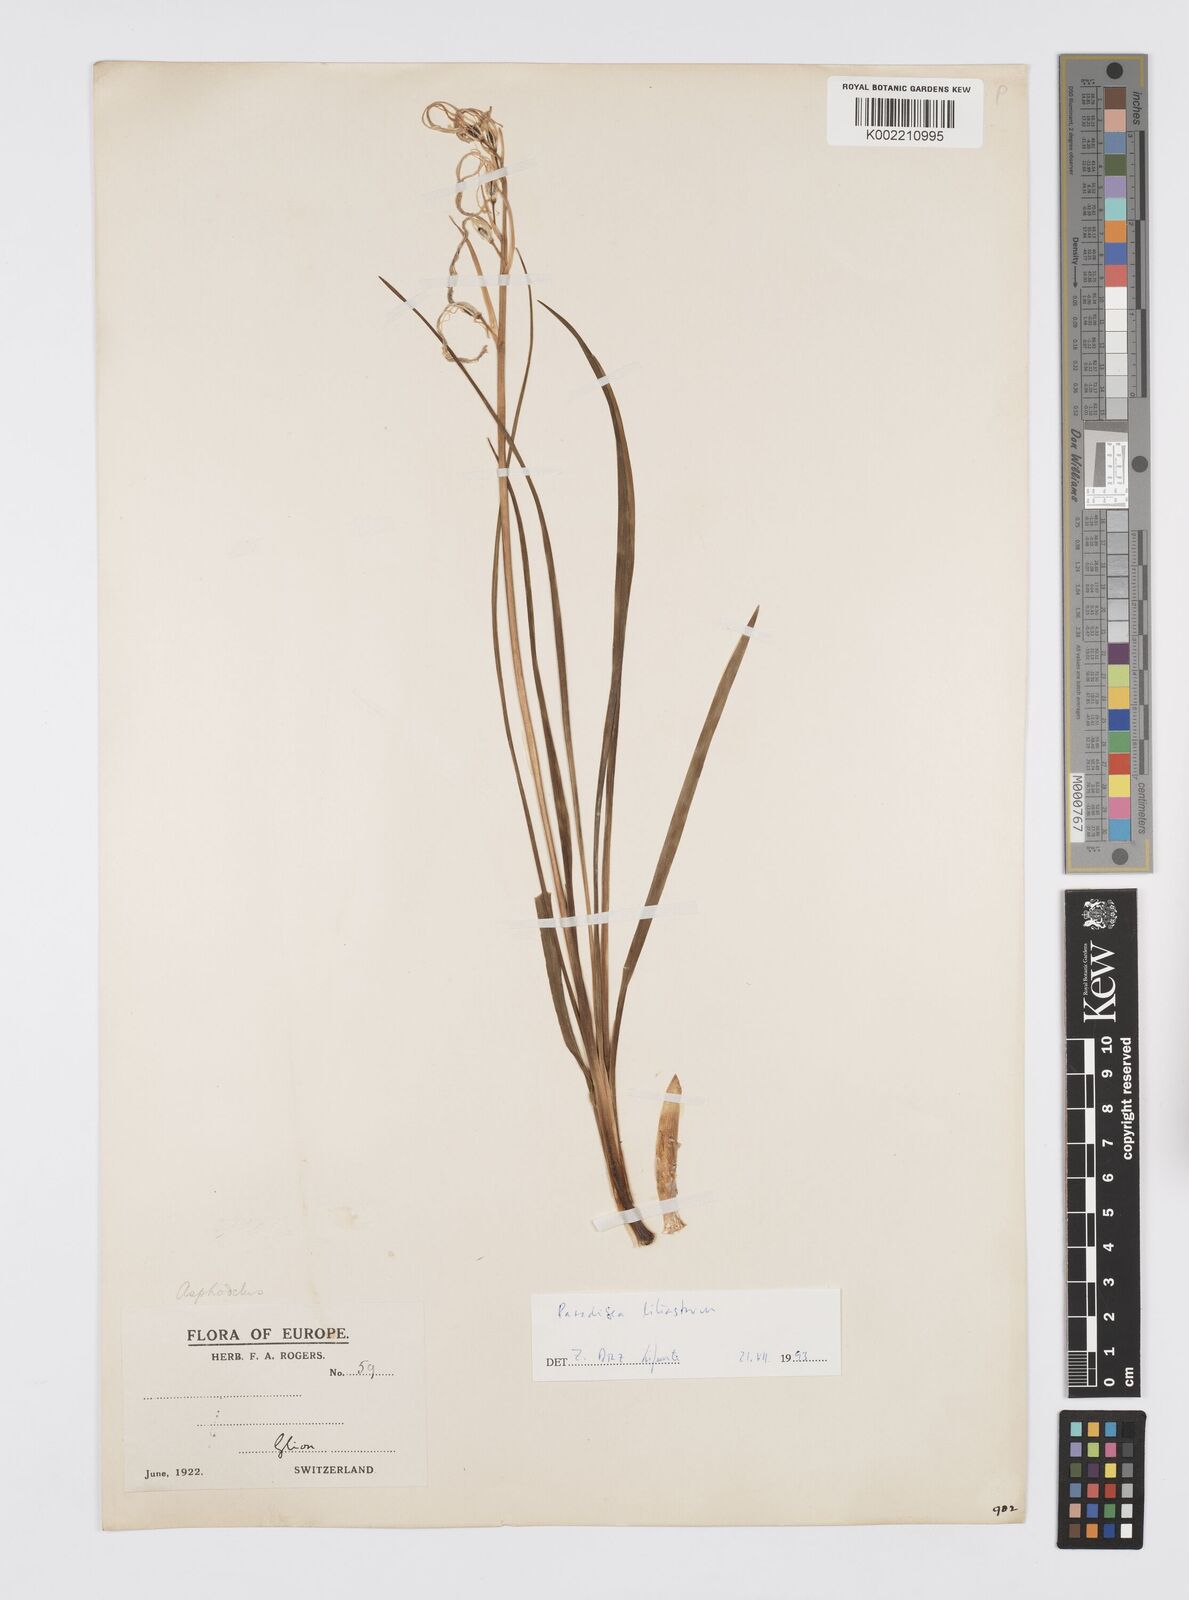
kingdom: Plantae
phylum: Tracheophyta
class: Liliopsida
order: Asparagales
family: Asphodelaceae
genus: Asphodelus
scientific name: Asphodelus
